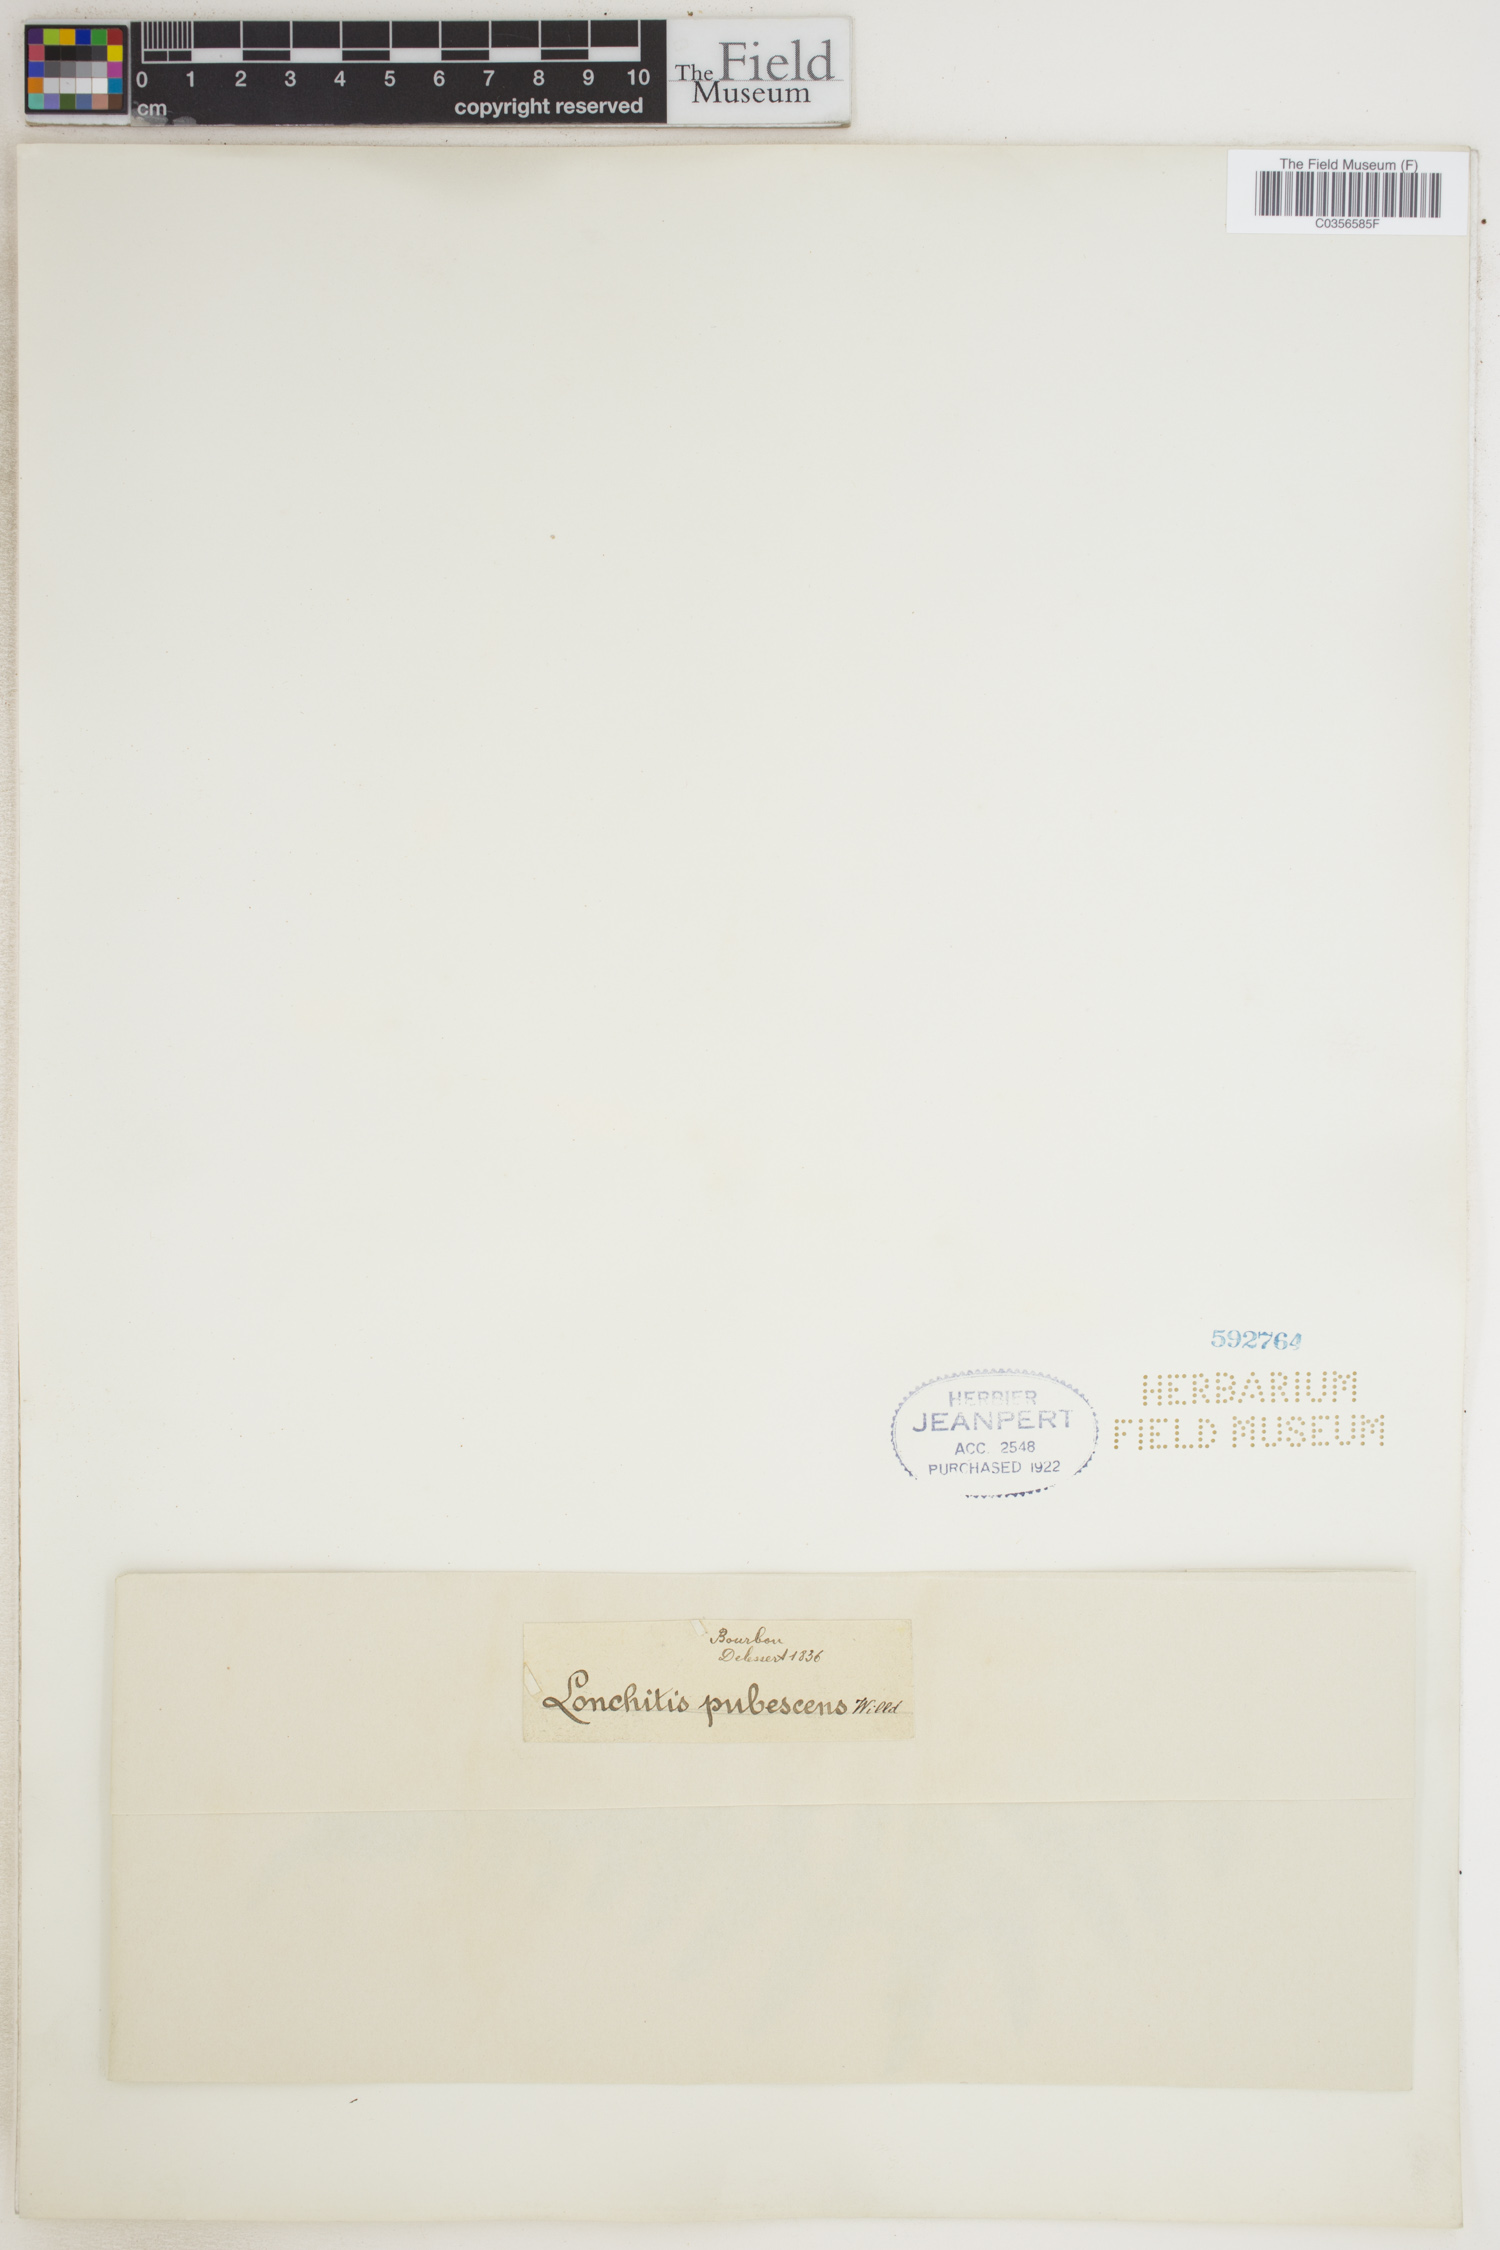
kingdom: Plantae
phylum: Tracheophyta
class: Polypodiopsida
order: Polypodiales
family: Dennstaedtiaceae
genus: Blotiella
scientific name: Blotiella natalensis
